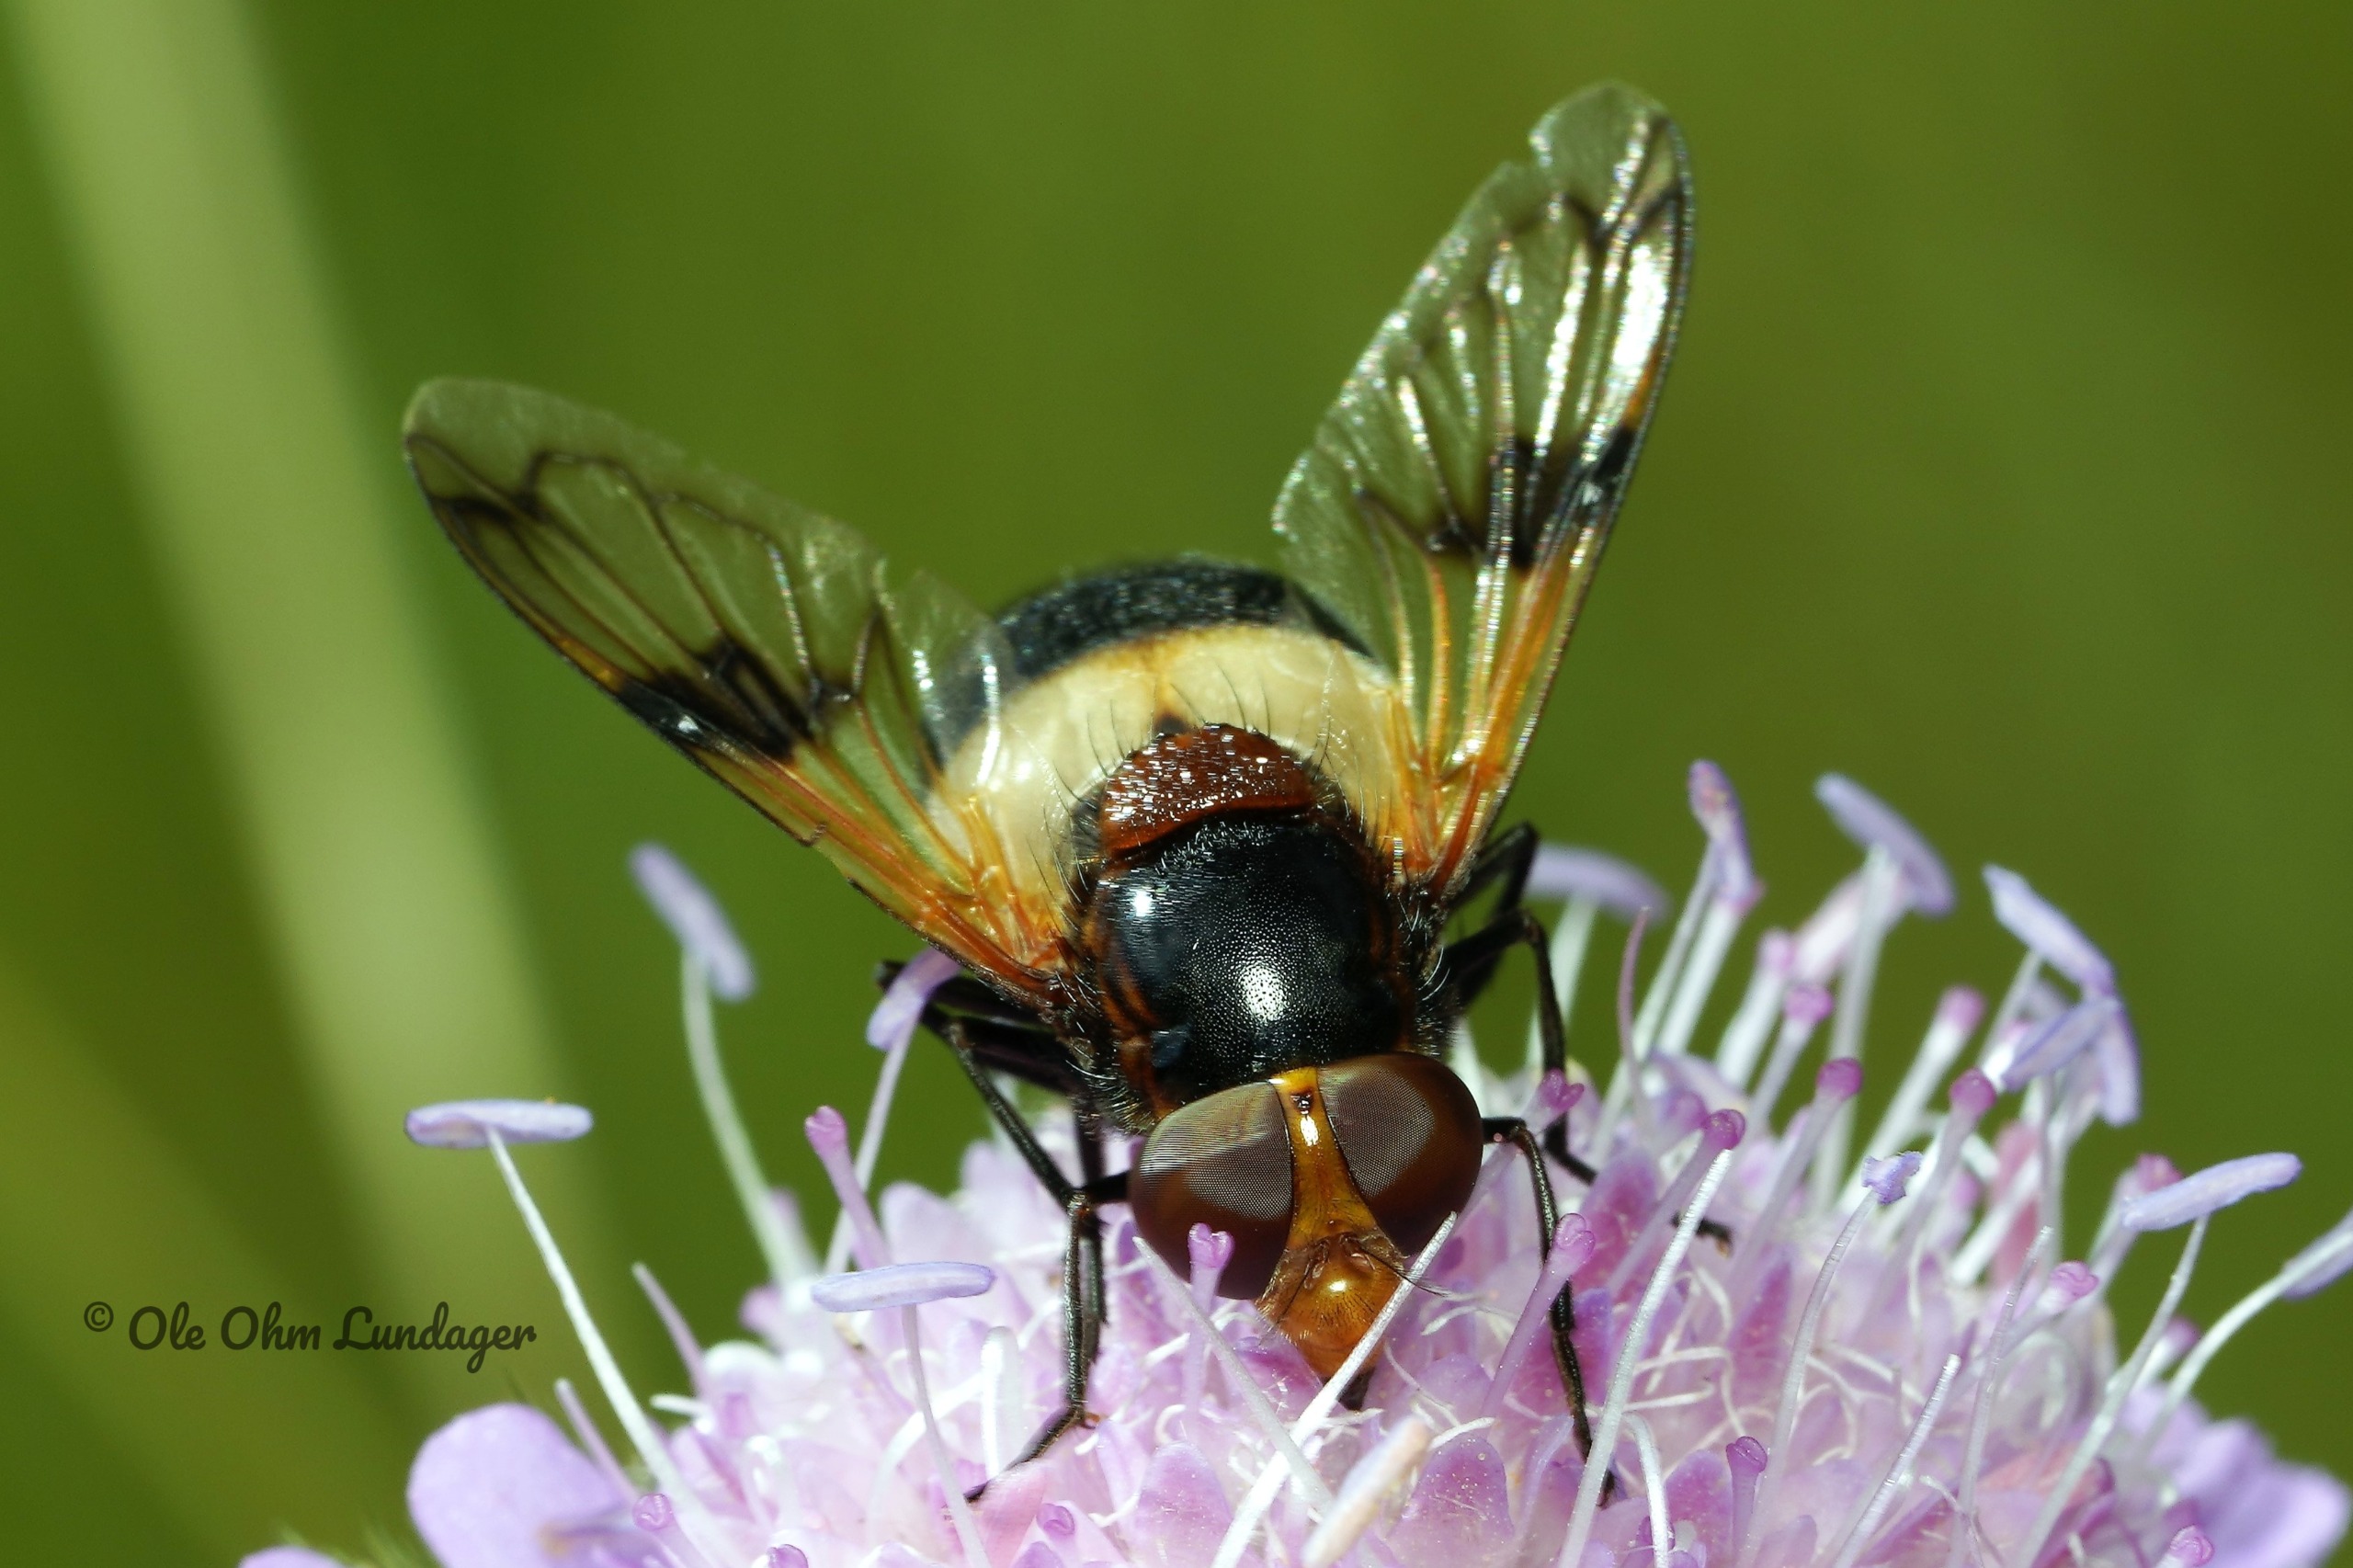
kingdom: Animalia
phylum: Arthropoda
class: Insecta
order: Diptera
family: Syrphidae
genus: Volucella
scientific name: Volucella pellucens
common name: Hvidbåndet humlesvirreflue
